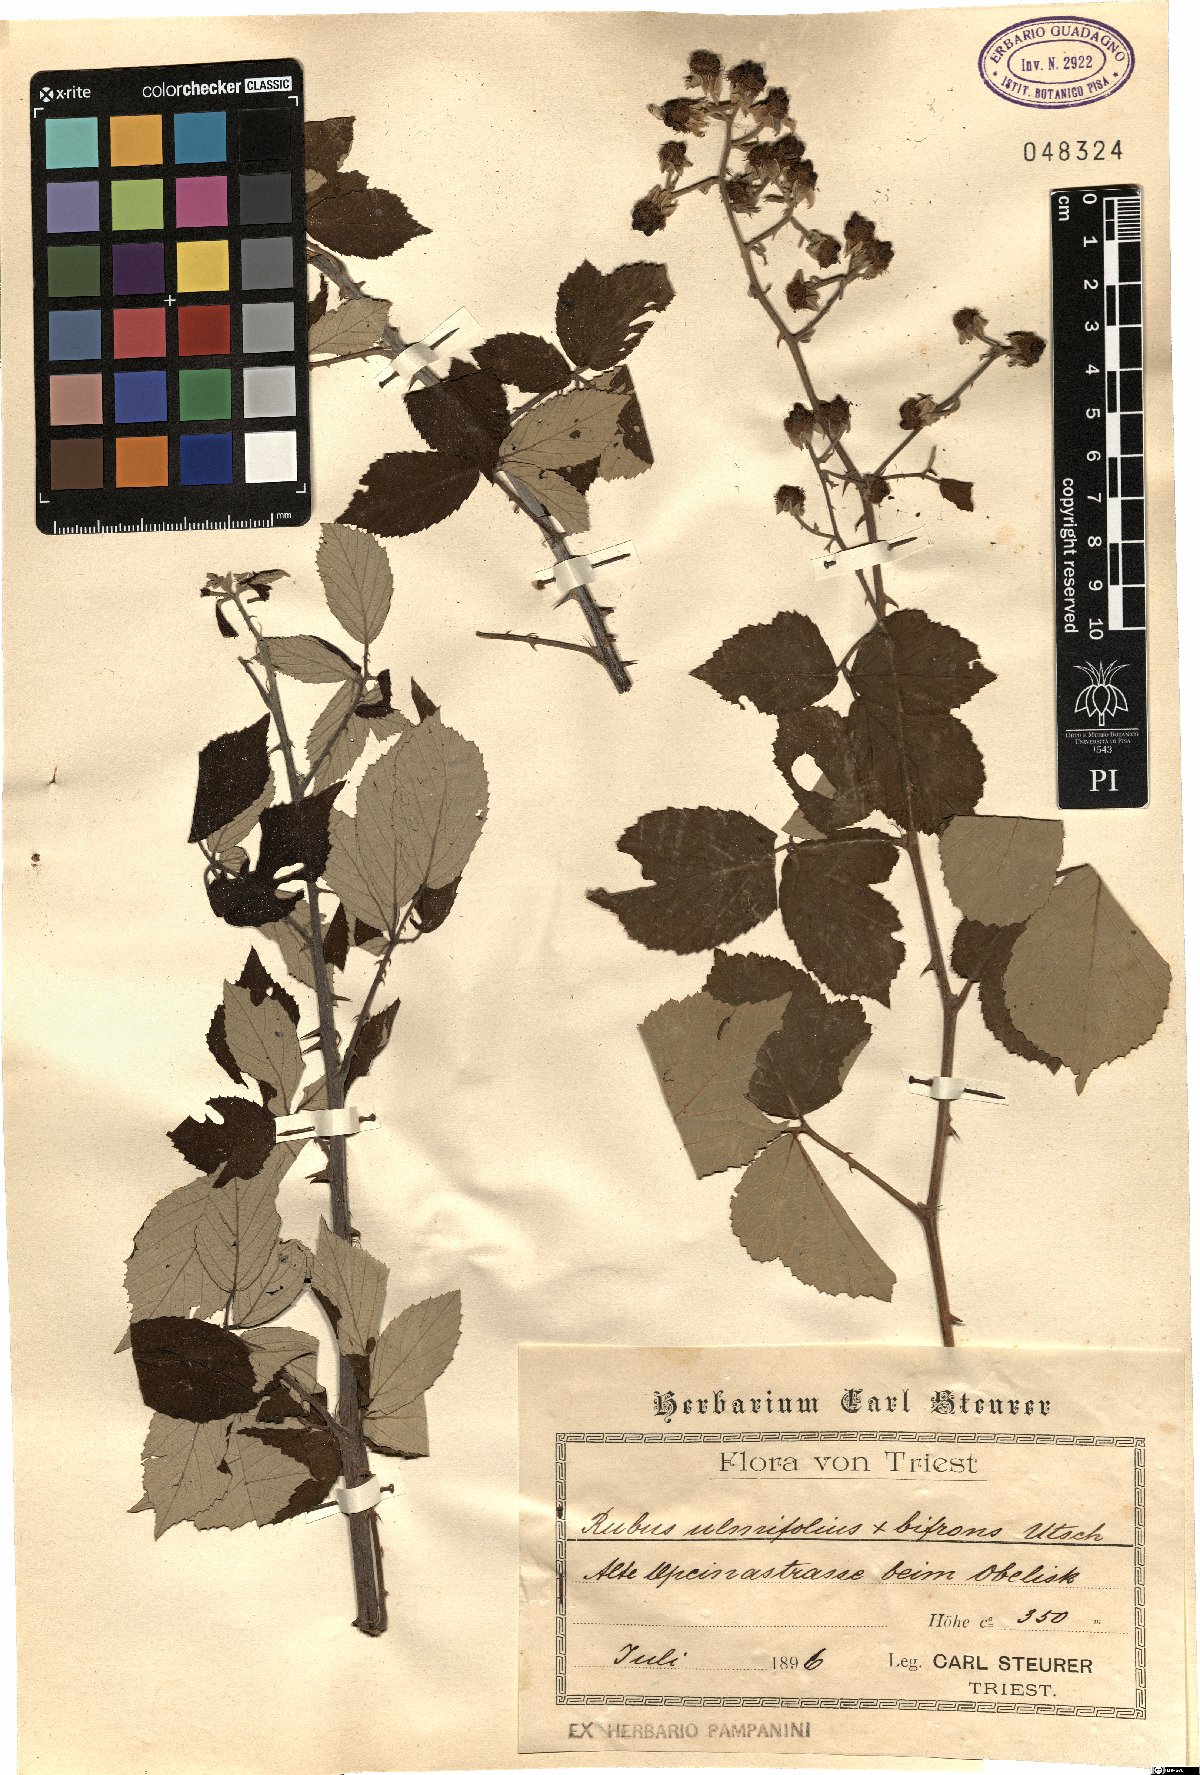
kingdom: Plantae
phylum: Tracheophyta
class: Magnoliopsida
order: Rosales
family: Rosaceae
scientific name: Rosaceae
